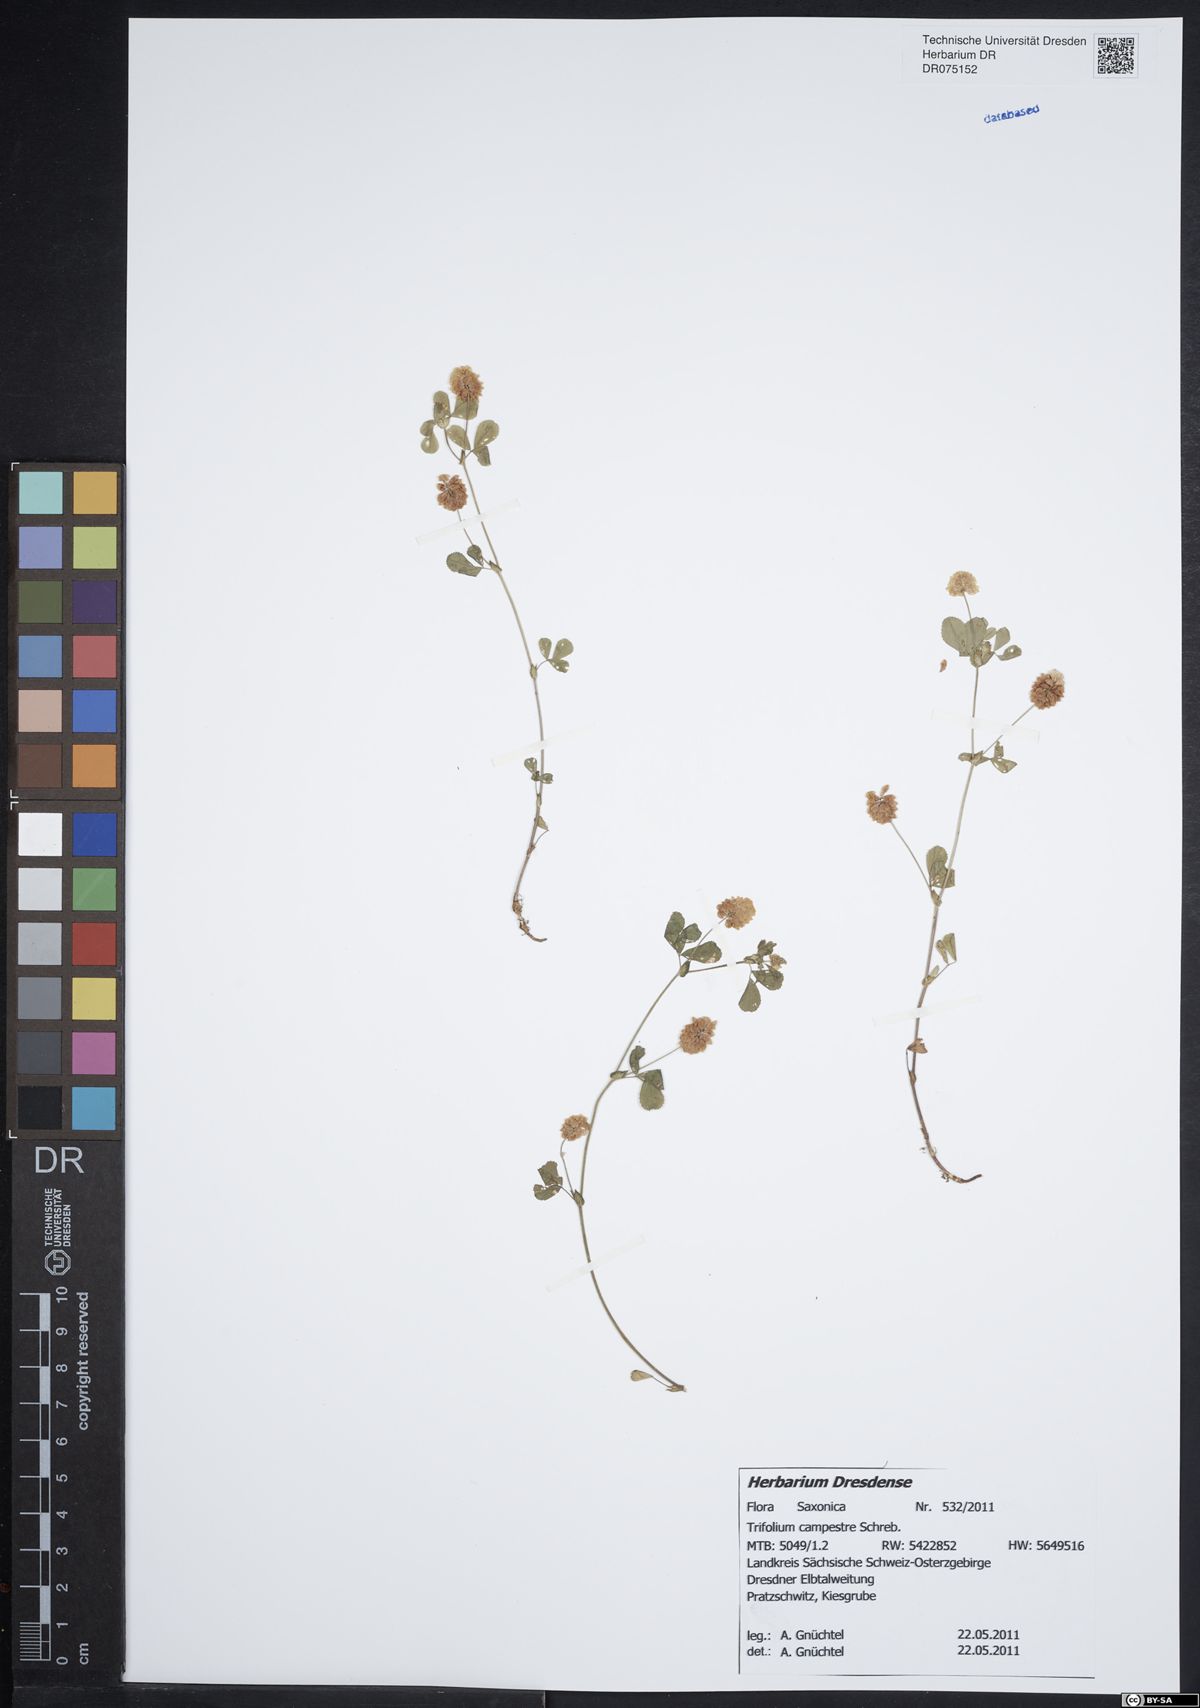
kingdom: Plantae
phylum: Tracheophyta
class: Magnoliopsida
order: Fabales
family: Fabaceae
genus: Trifolium
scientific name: Trifolium campestre
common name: Field clover
